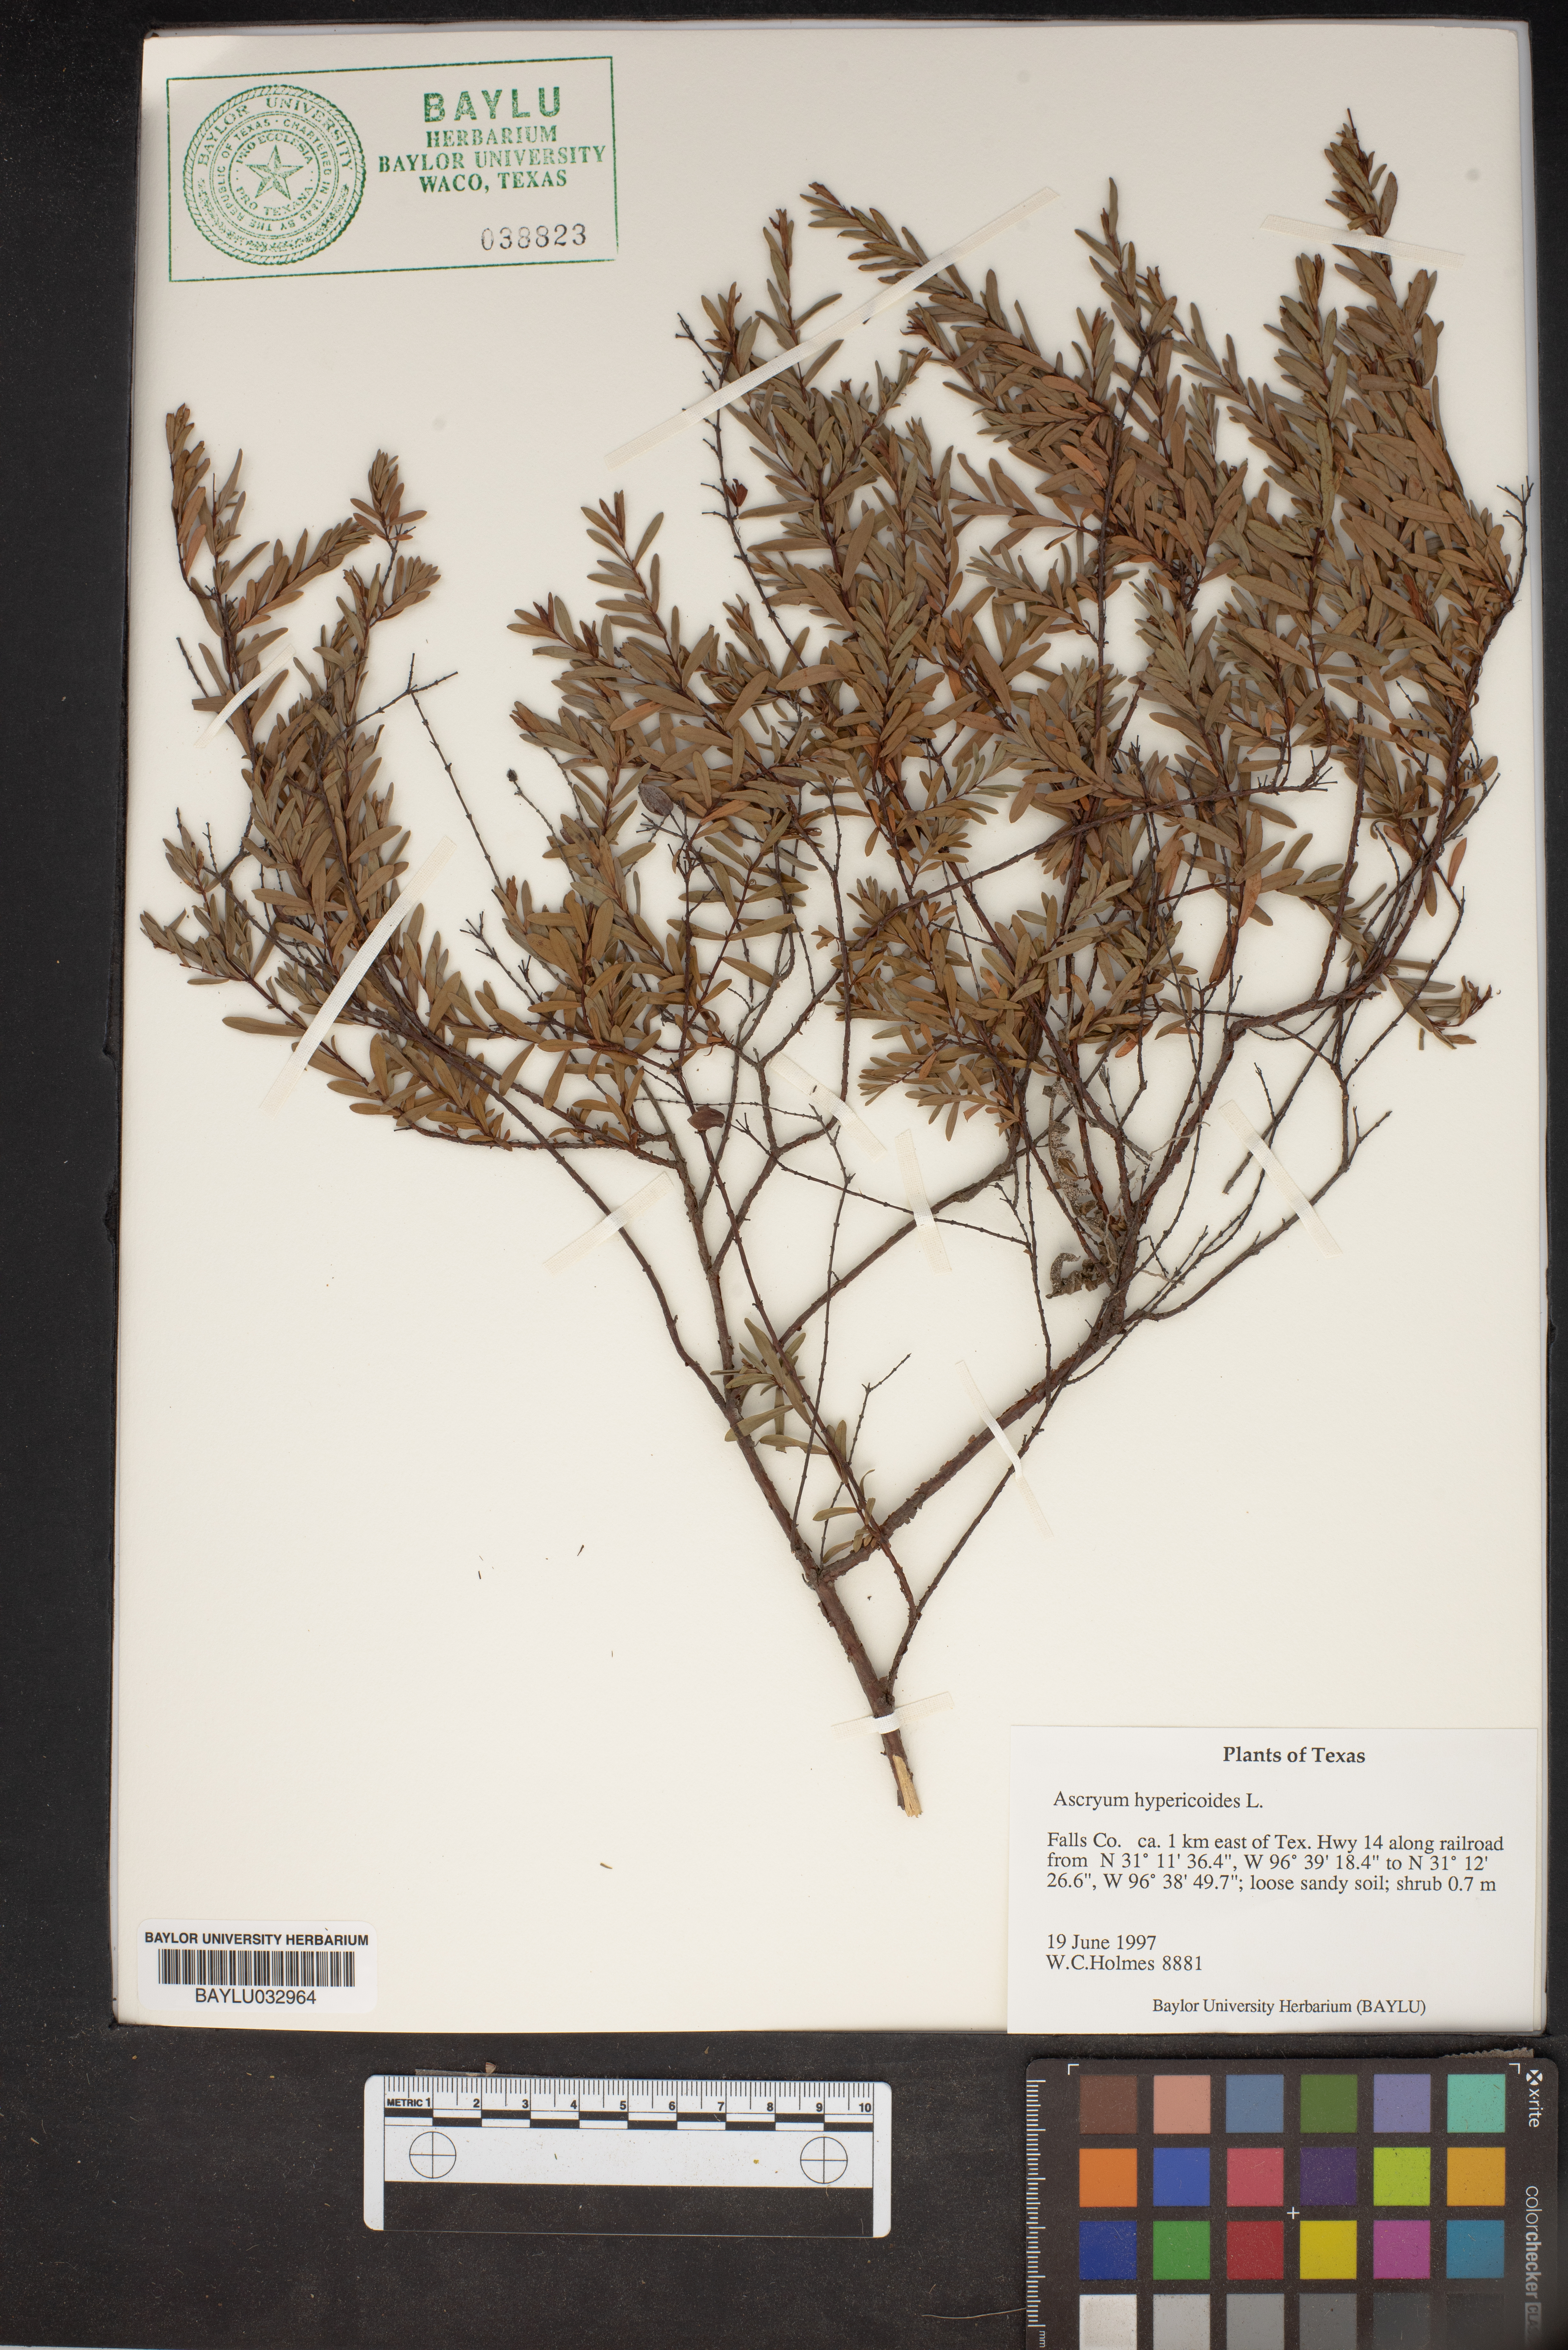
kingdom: Plantae
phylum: Tracheophyta
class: Magnoliopsida
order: Malpighiales
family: Hypericaceae
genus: Hypericum
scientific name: Hypericum hypericoides
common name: St. andrew's cross
